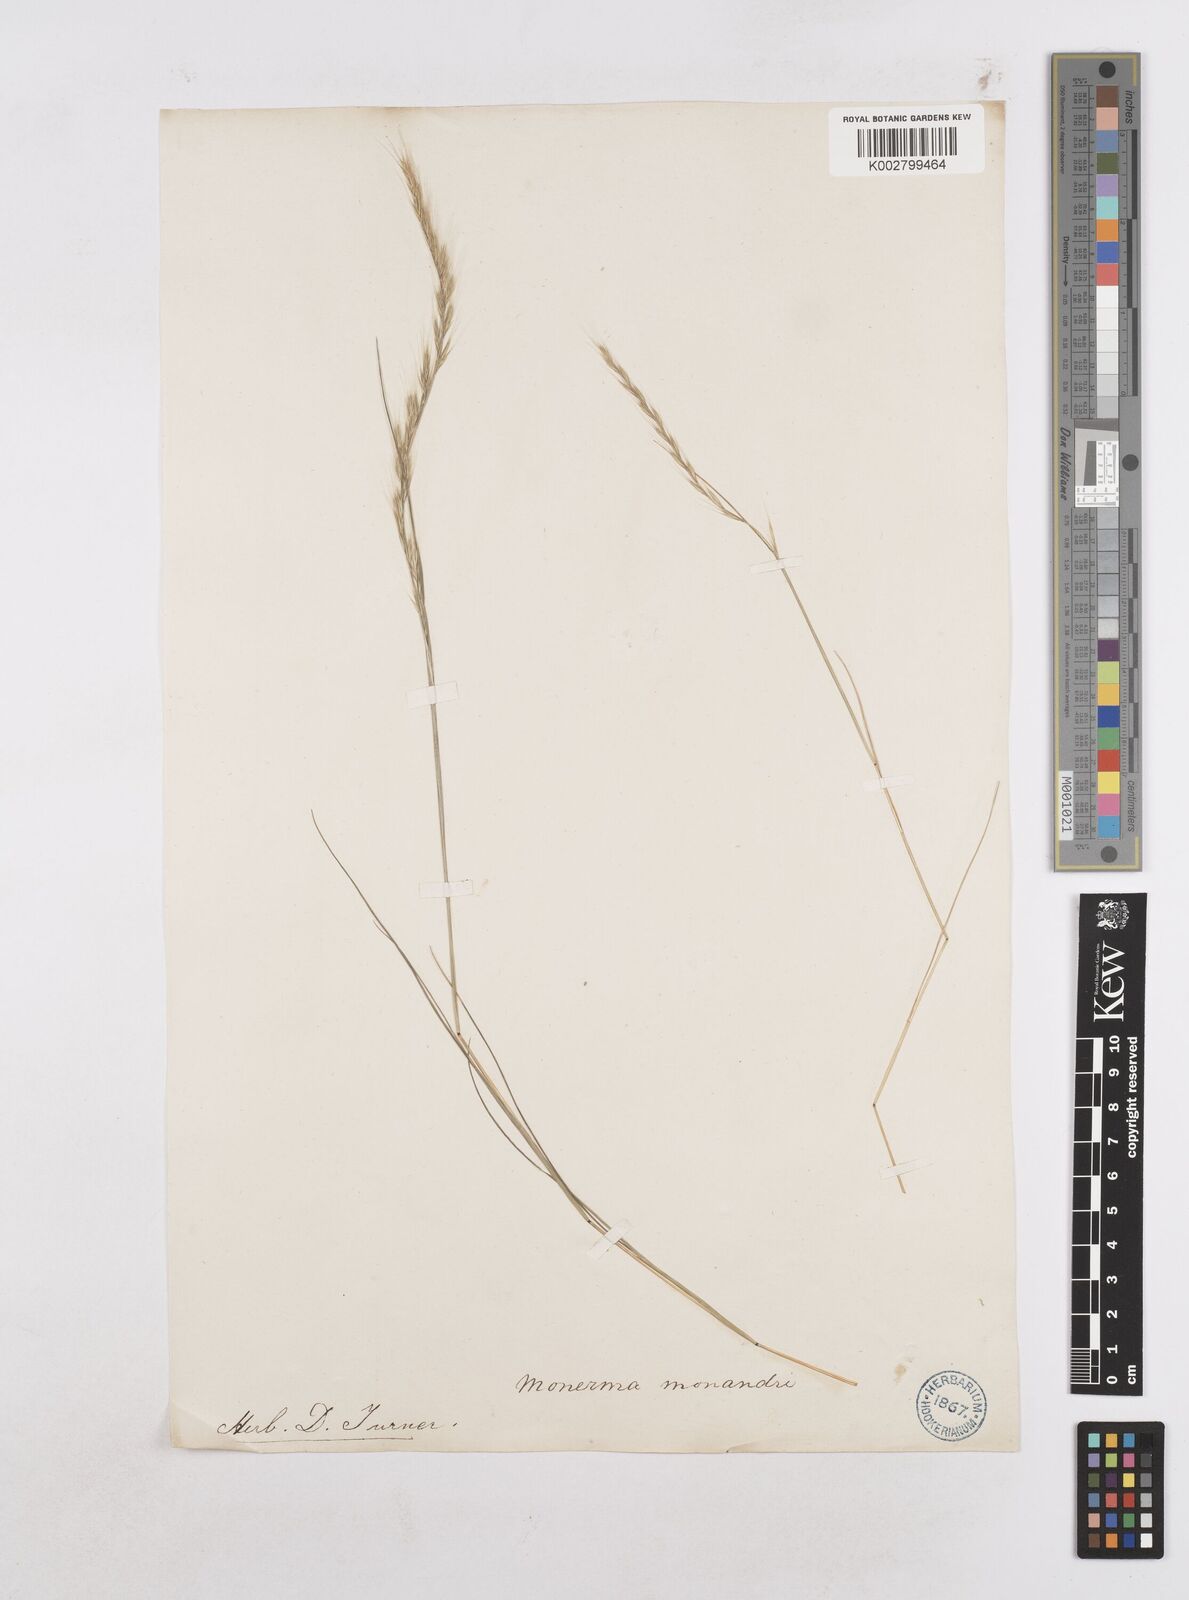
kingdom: Plantae
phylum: Tracheophyta
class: Liliopsida
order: Poales
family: Poaceae
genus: Festuca
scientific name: Festuca myuros
